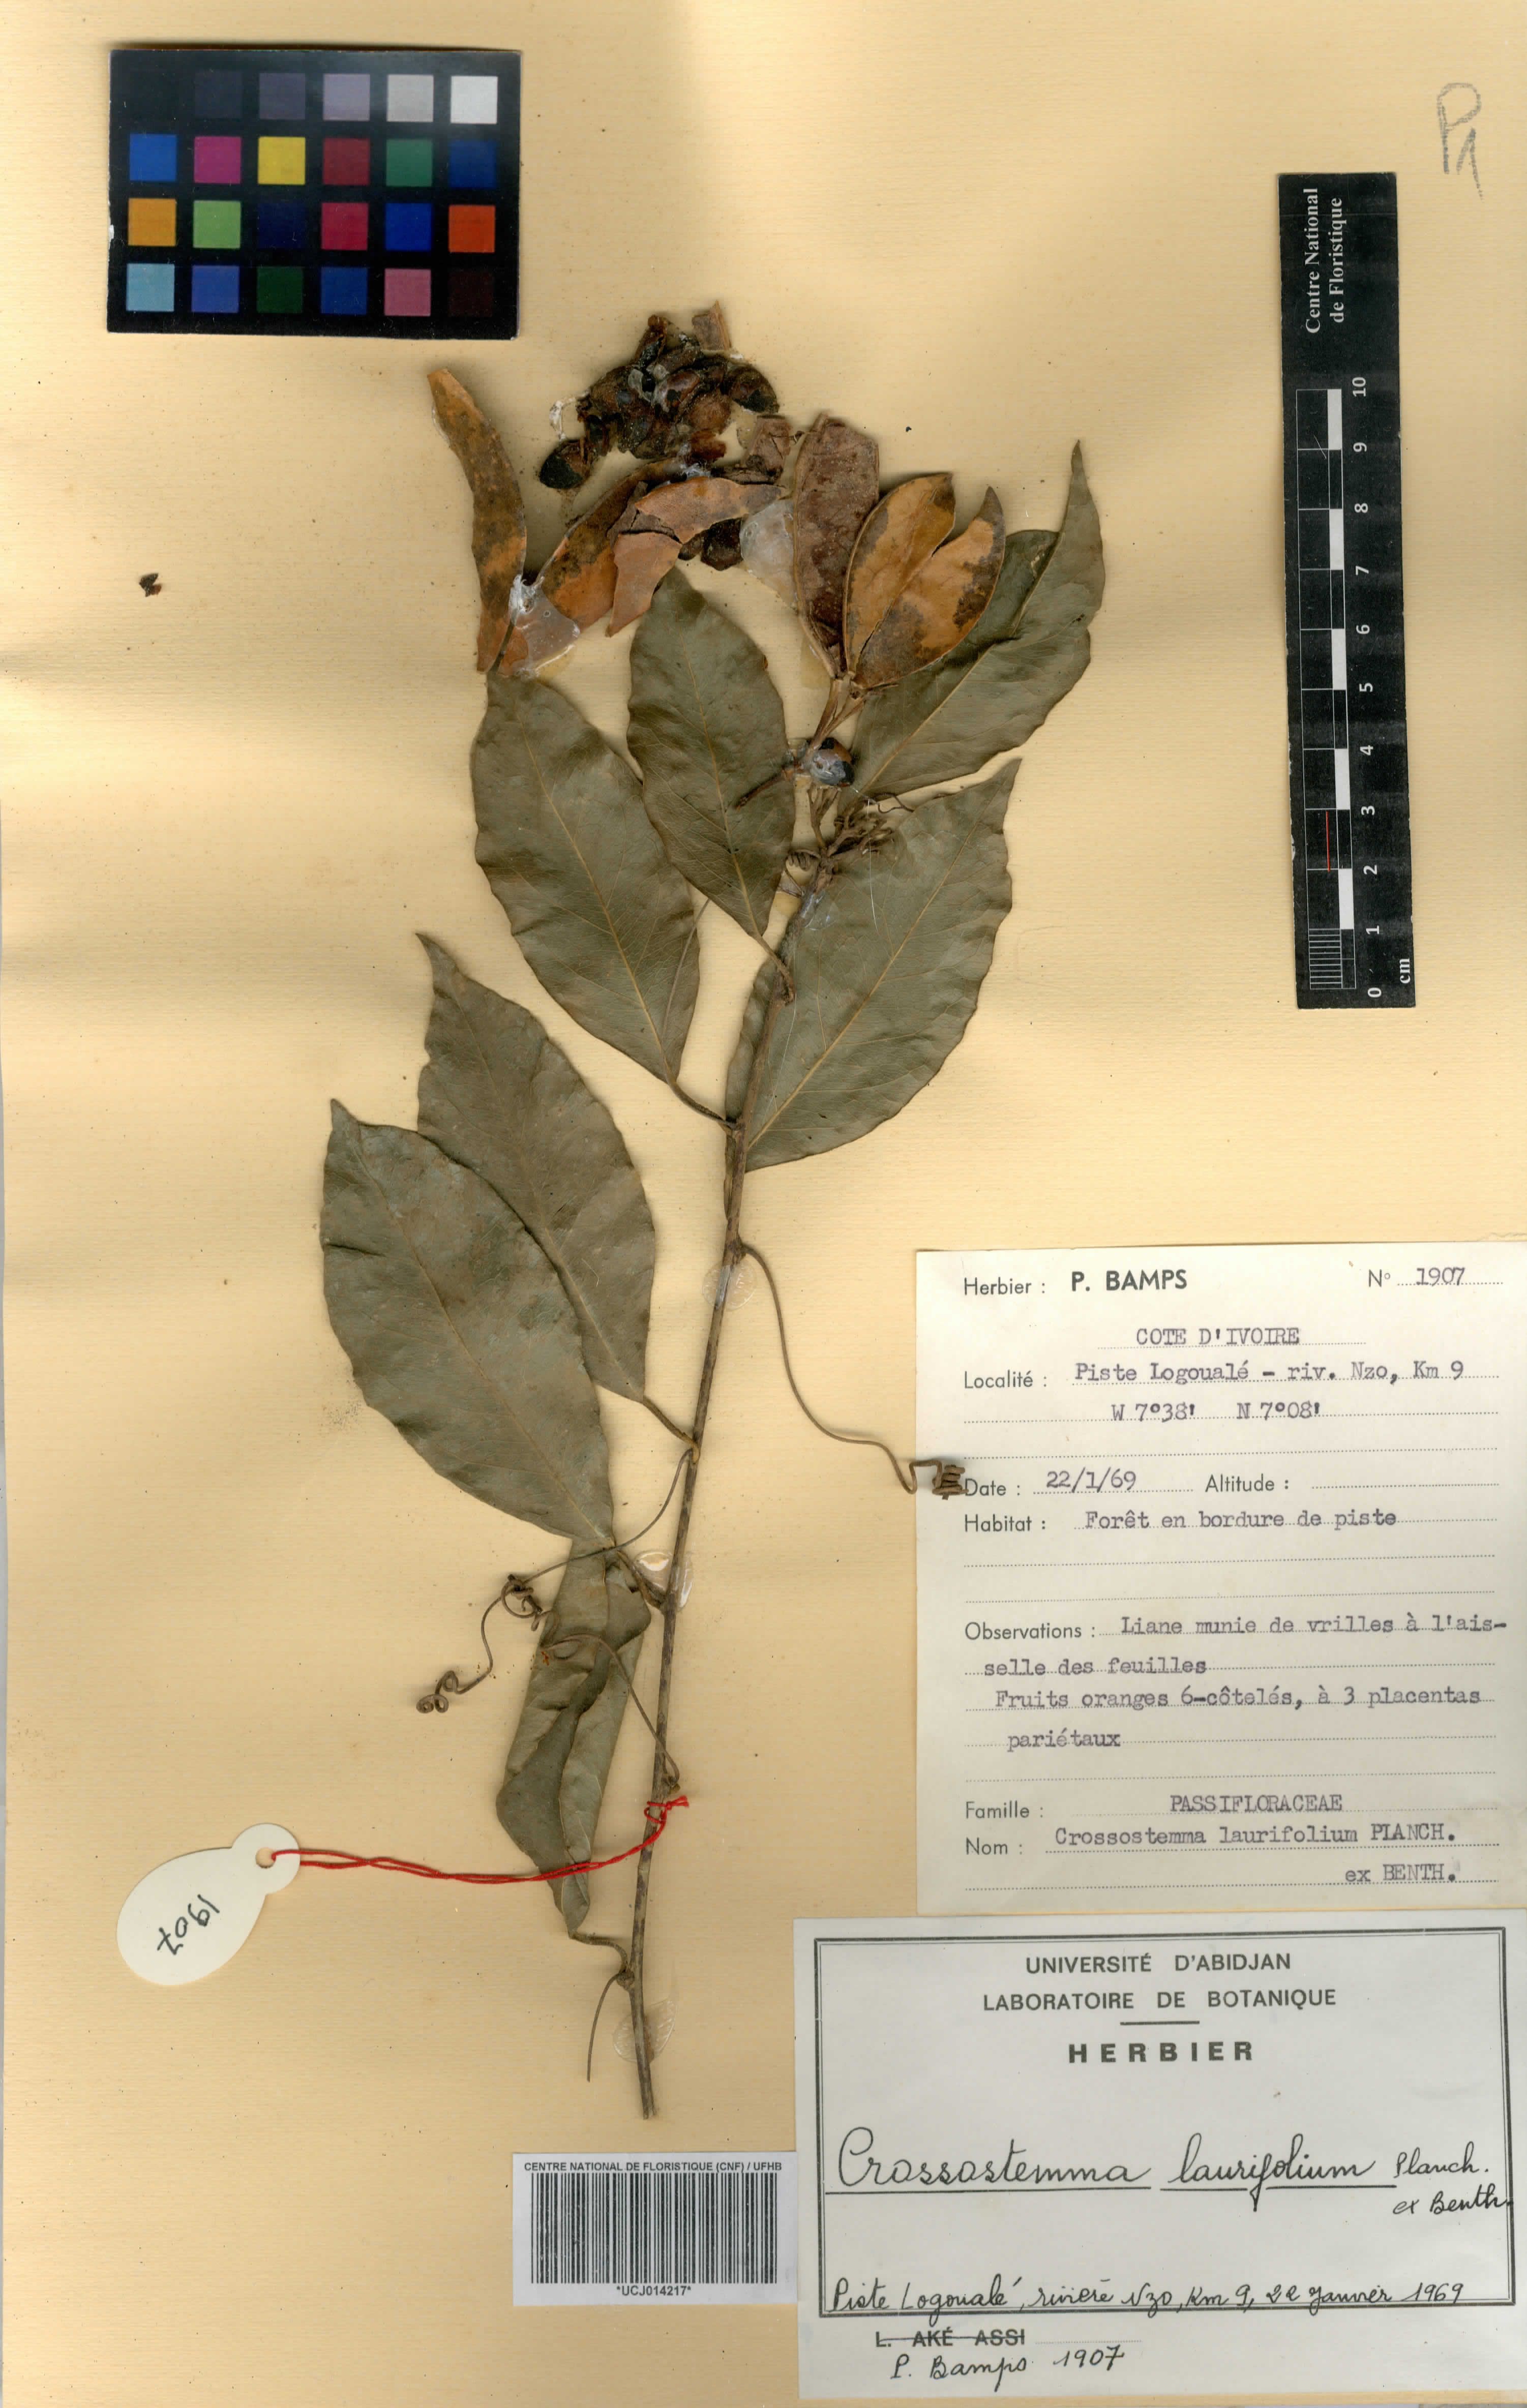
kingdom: Plantae
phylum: Tracheophyta
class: Magnoliopsida
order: Malpighiales
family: Passifloraceae
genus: Crossostemma
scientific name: Crossostemma laurifolium
